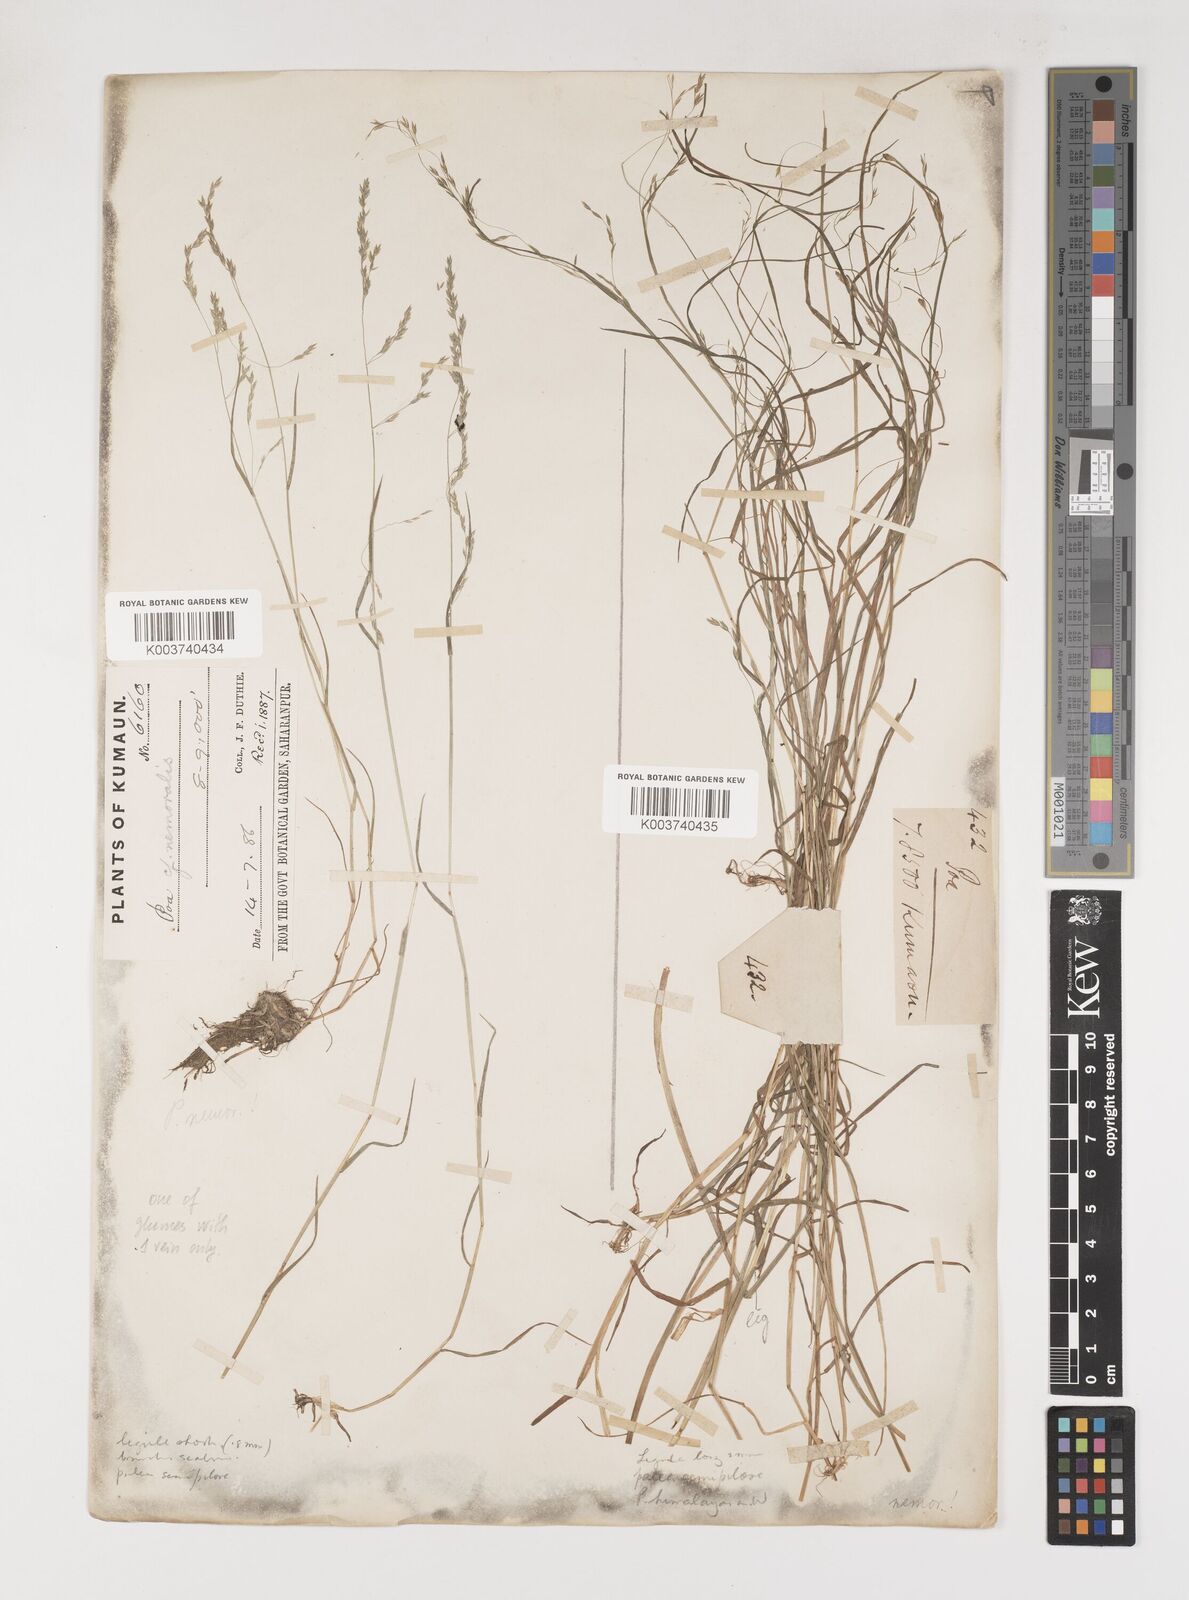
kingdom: Plantae
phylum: Tracheophyta
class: Liliopsida
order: Poales
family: Poaceae
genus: Poa
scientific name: Poa nemoralis
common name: Wood bluegrass
